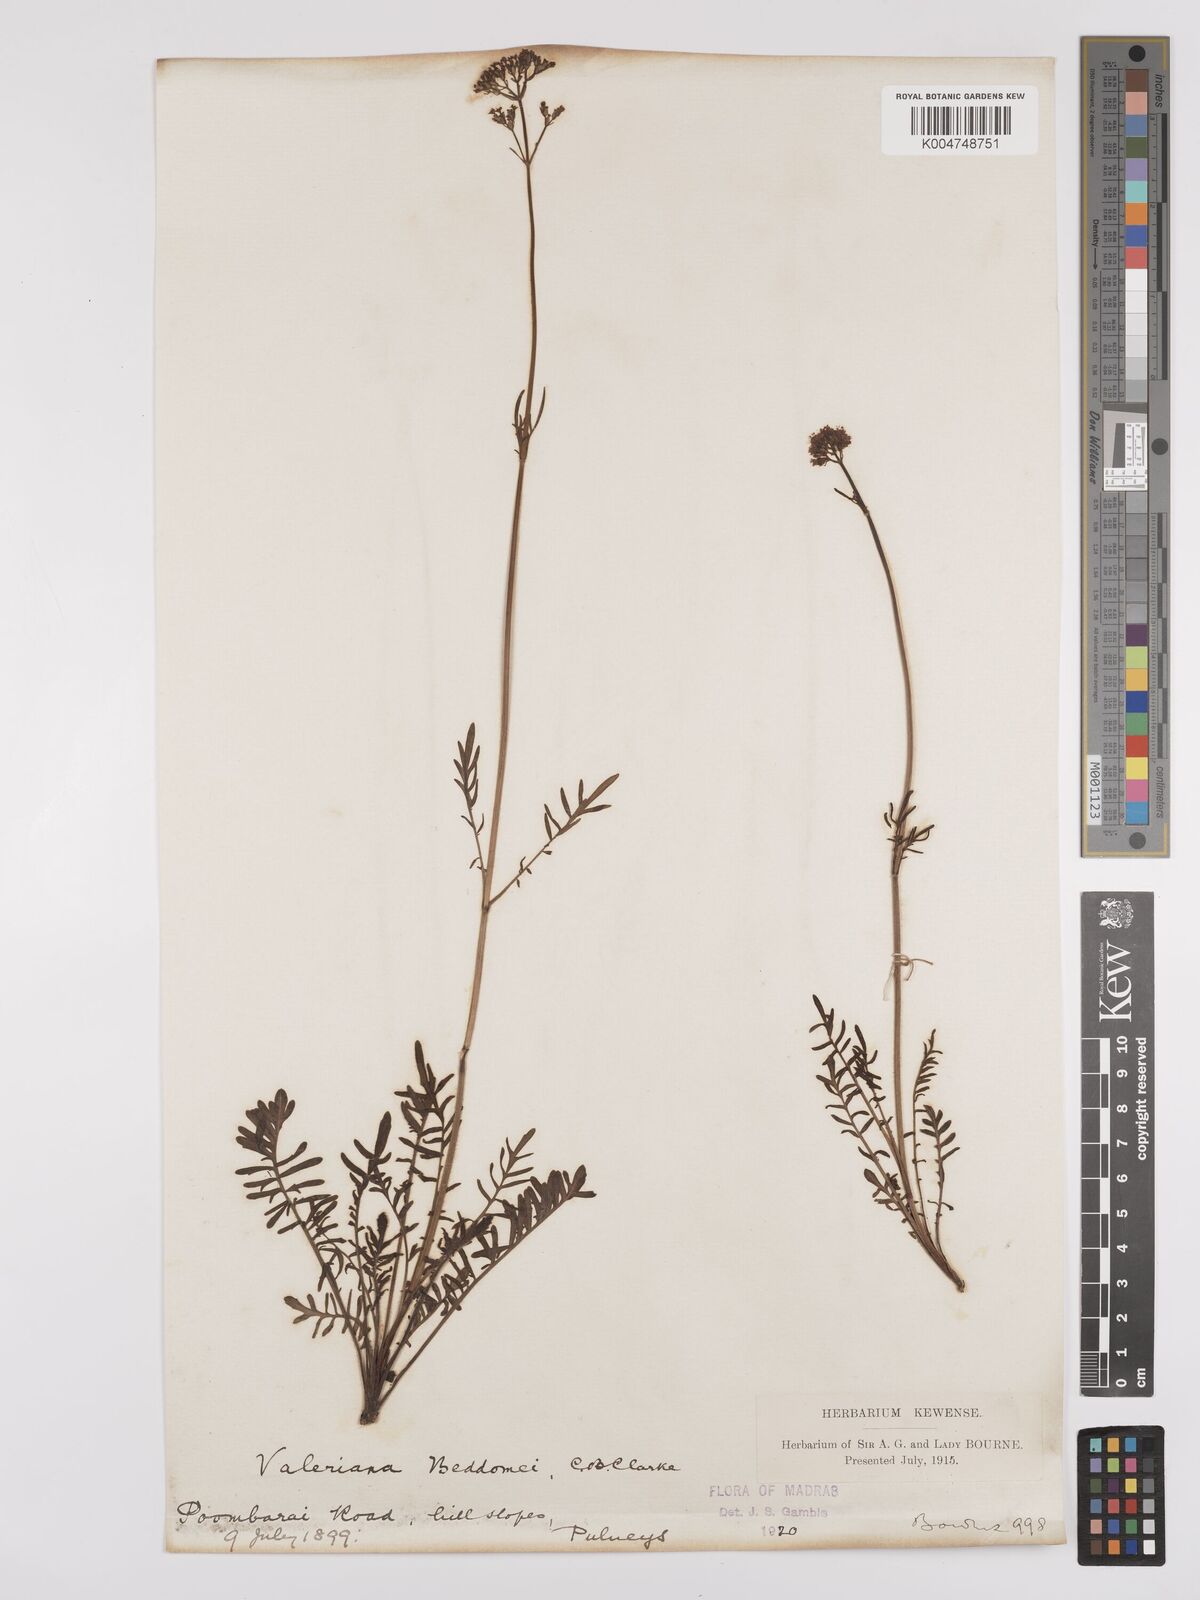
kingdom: Plantae
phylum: Tracheophyta
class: Magnoliopsida
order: Dipsacales
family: Caprifoliaceae
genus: Valeriana
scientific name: Valeriana beddomei
